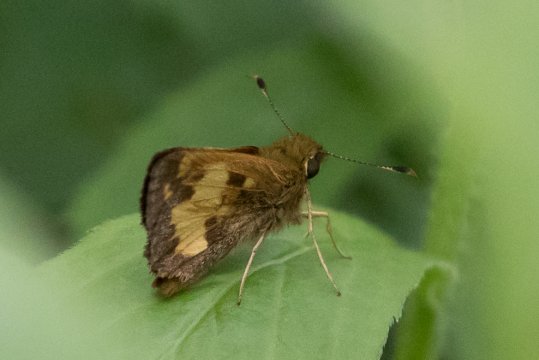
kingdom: Animalia
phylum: Arthropoda
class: Insecta
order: Lepidoptera
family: Hesperiidae
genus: Lon
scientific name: Lon hobomok
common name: Hobomok Skipper
